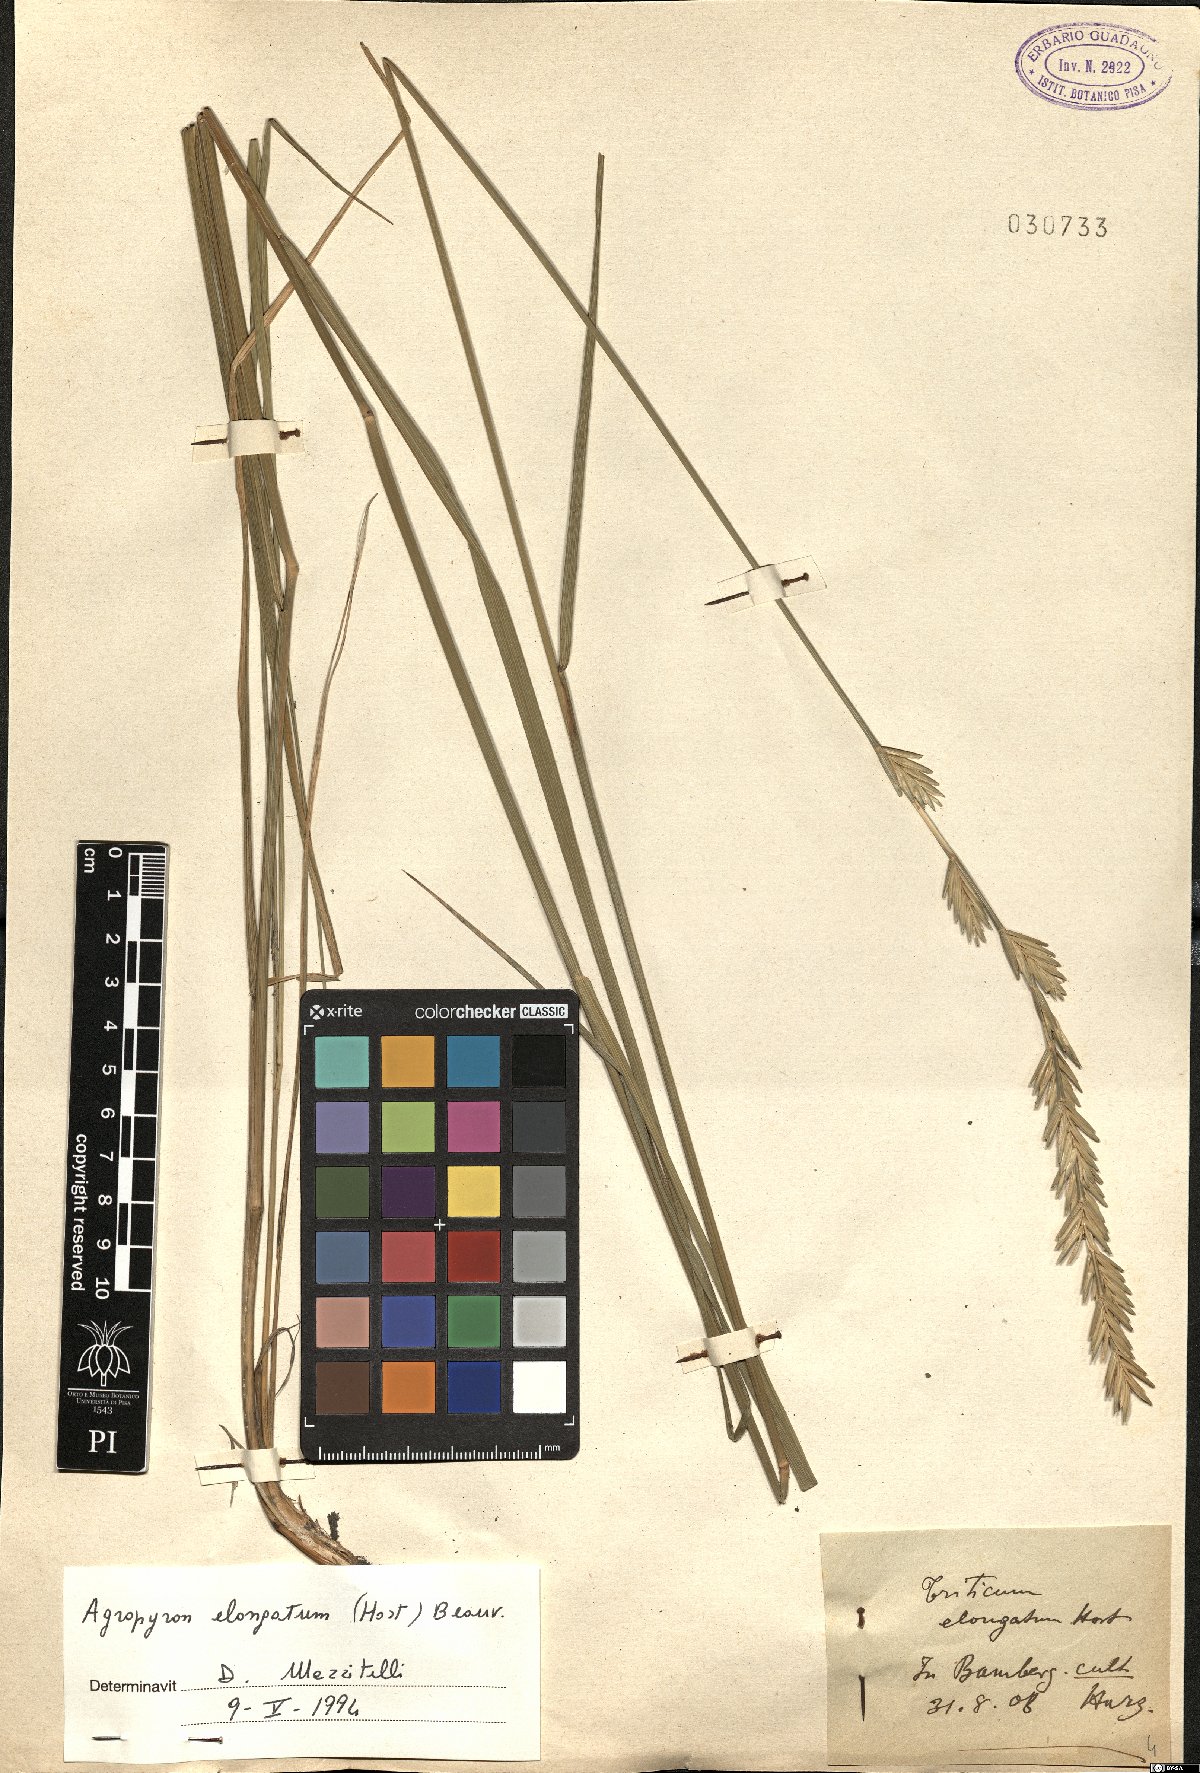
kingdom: Plantae
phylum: Tracheophyta
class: Liliopsida
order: Poales
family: Poaceae
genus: Thinopyrum
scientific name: Thinopyrum elongatum
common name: Tall wheatgrass
